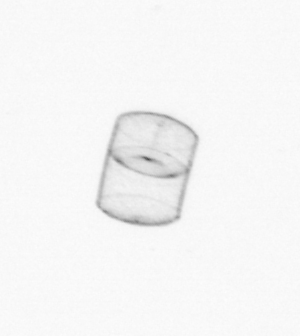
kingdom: Chromista
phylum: Ochrophyta
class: Bacillariophyceae
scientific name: Bacillariophyceae
